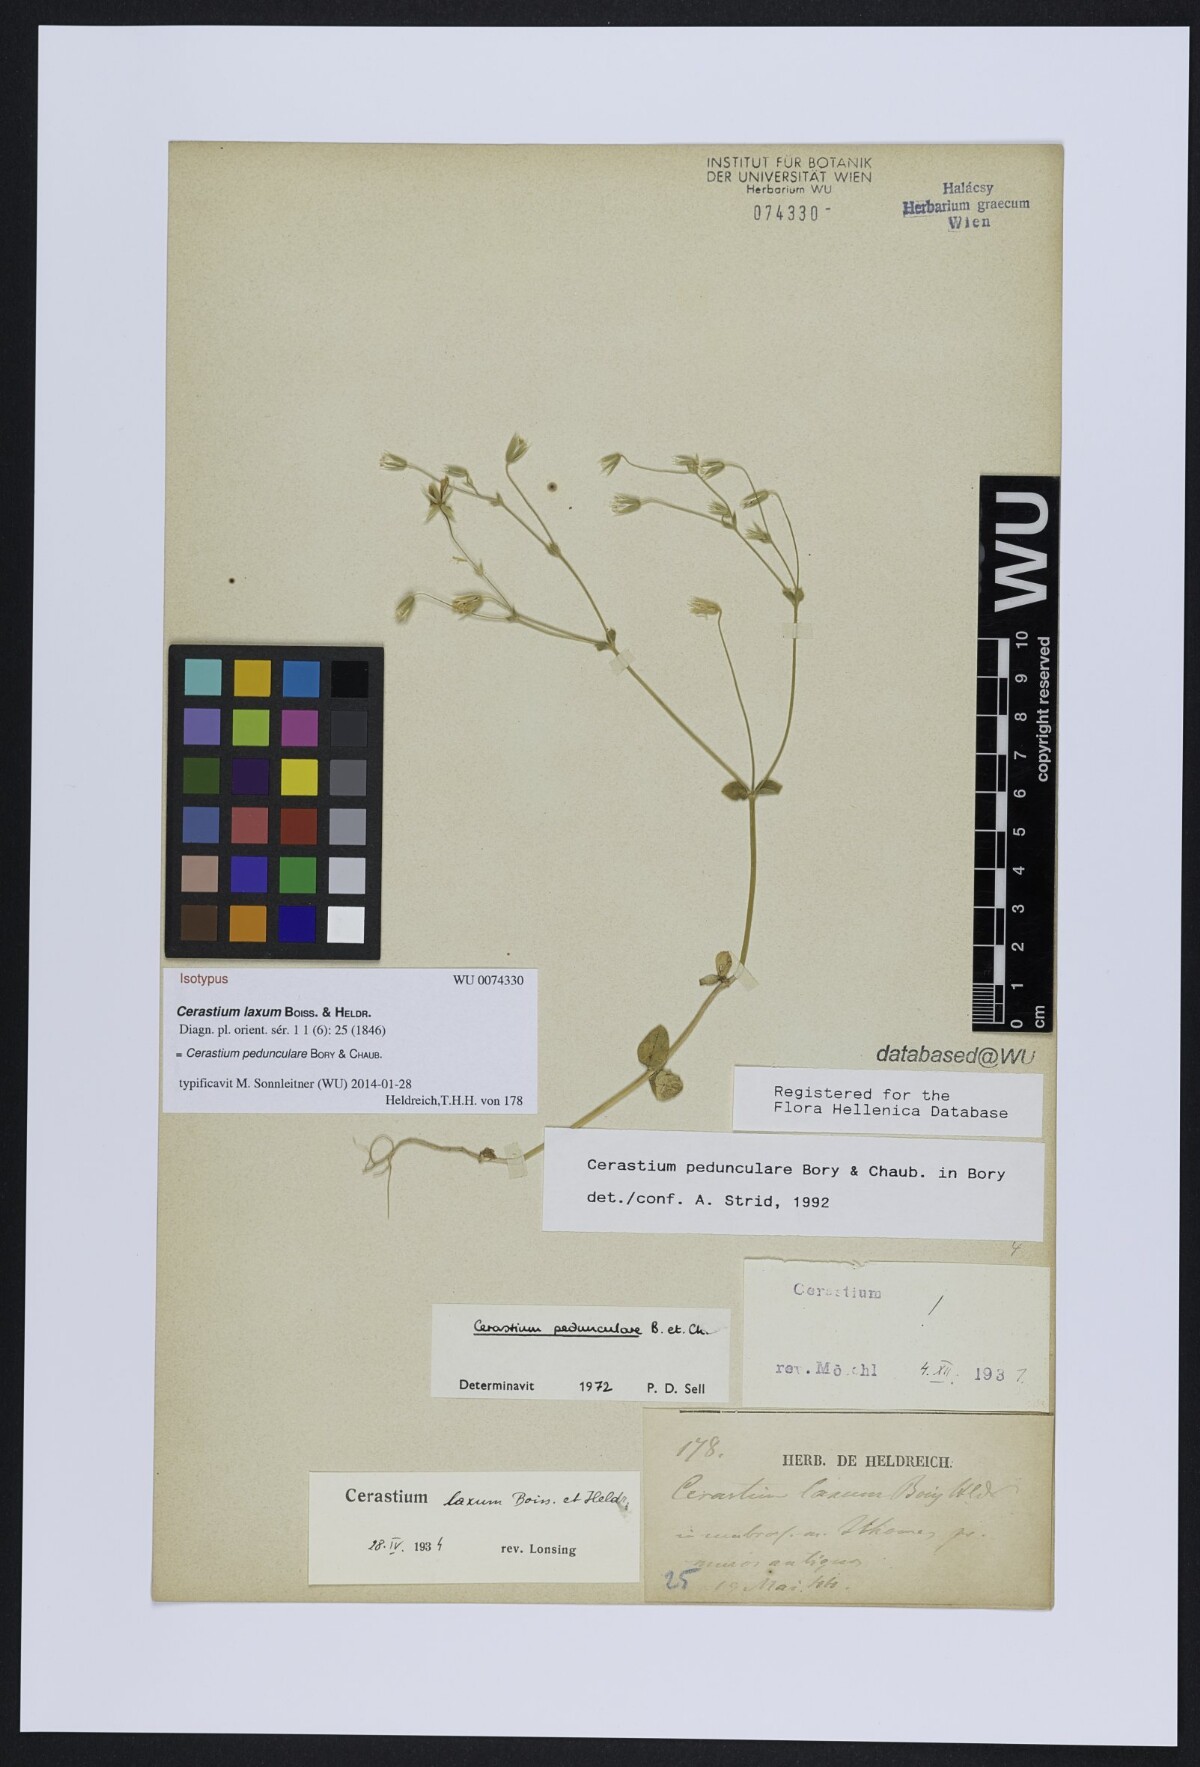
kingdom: Plantae
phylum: Tracheophyta
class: Magnoliopsida
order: Caryophyllales
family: Caryophyllaceae
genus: Cerastium
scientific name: Cerastium pedunculare
